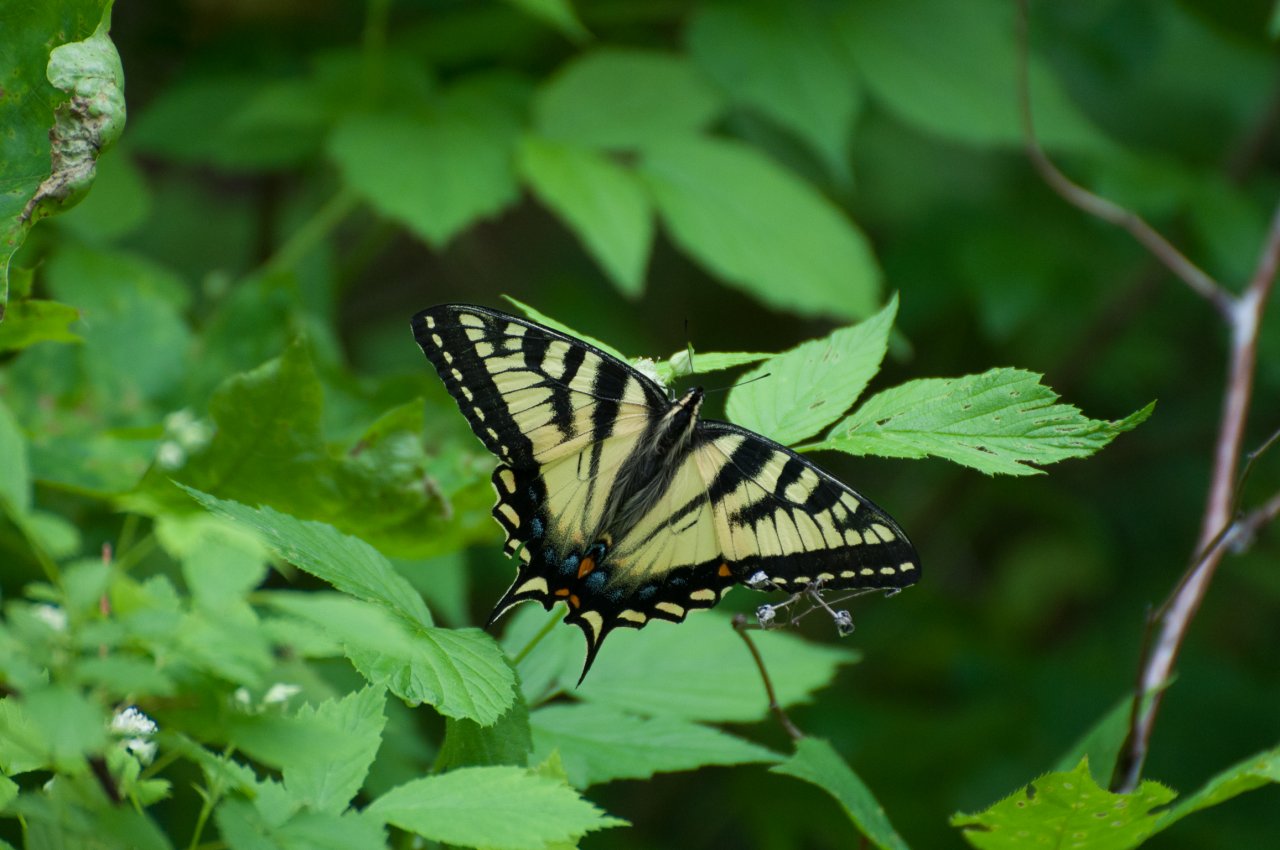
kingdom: Animalia
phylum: Arthropoda
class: Insecta
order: Lepidoptera
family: Papilionidae
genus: Pterourus
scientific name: Pterourus canadensis
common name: Canadian Tiger Swallowtail
